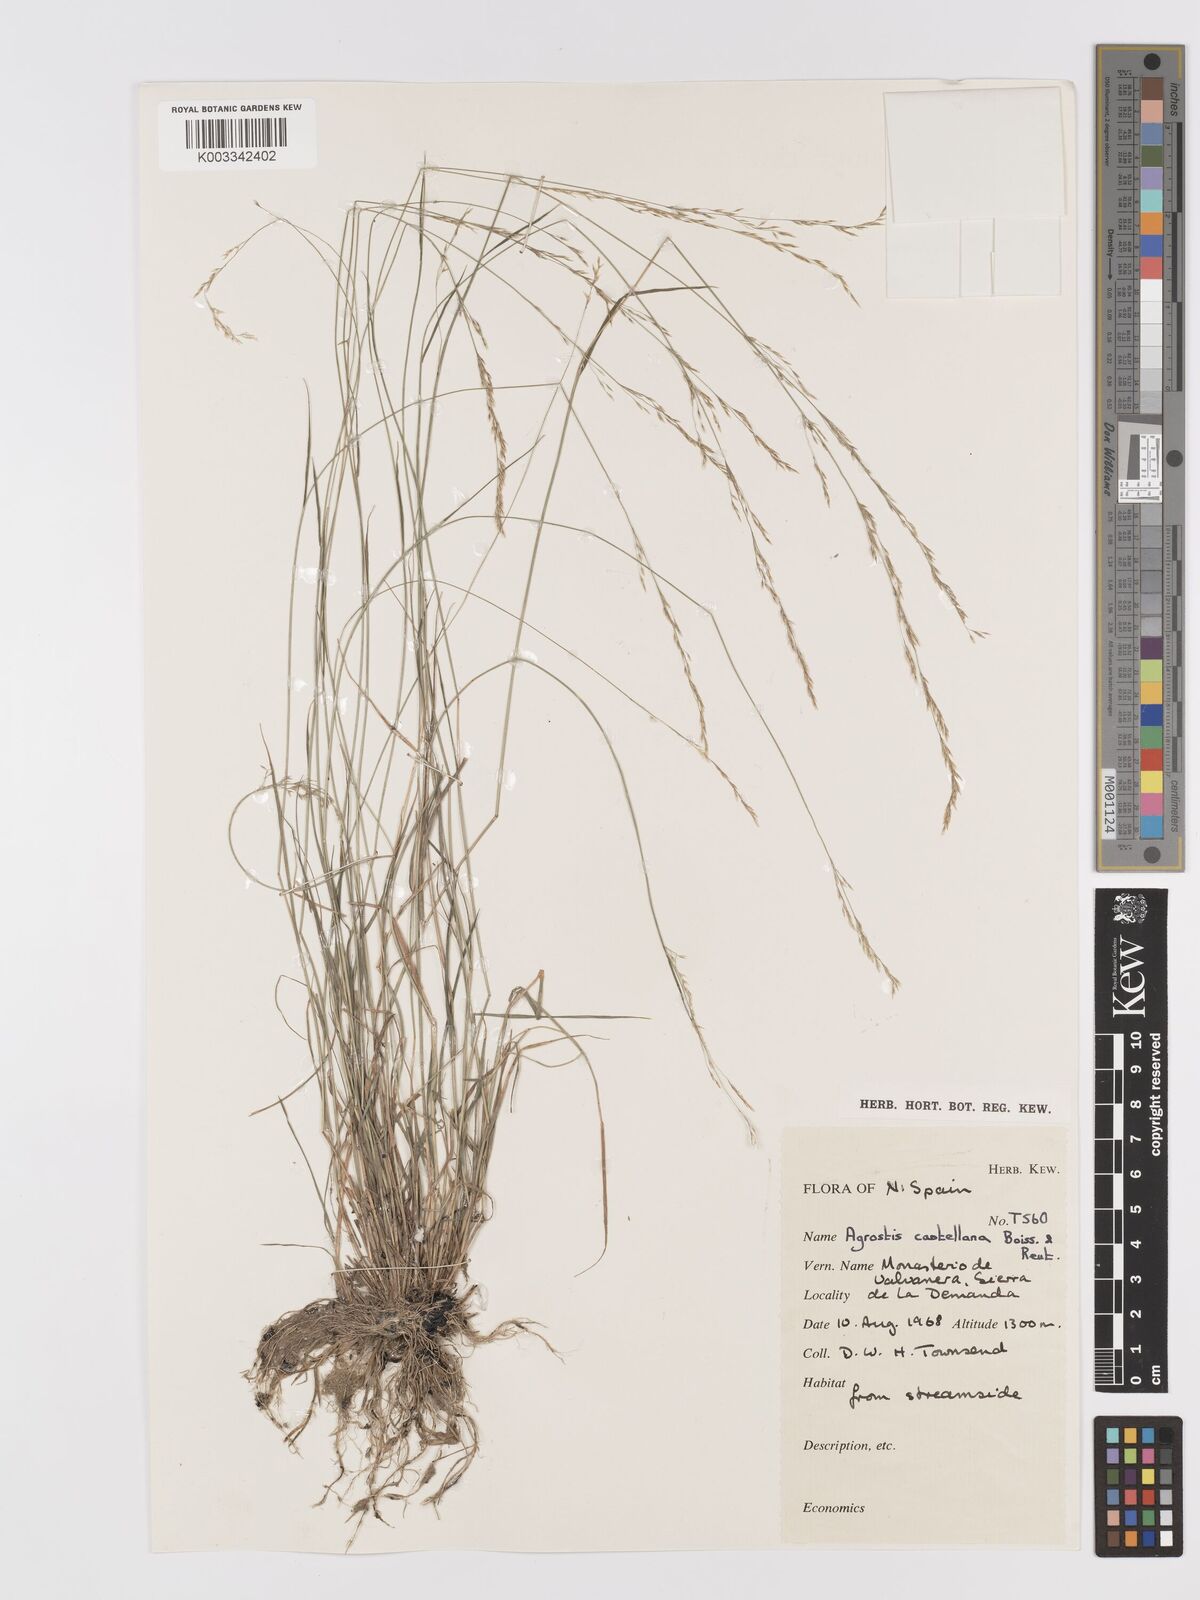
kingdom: Plantae
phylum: Tracheophyta
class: Liliopsida
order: Poales
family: Poaceae
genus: Agrostis
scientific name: Agrostis castellana
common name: Highland bent
